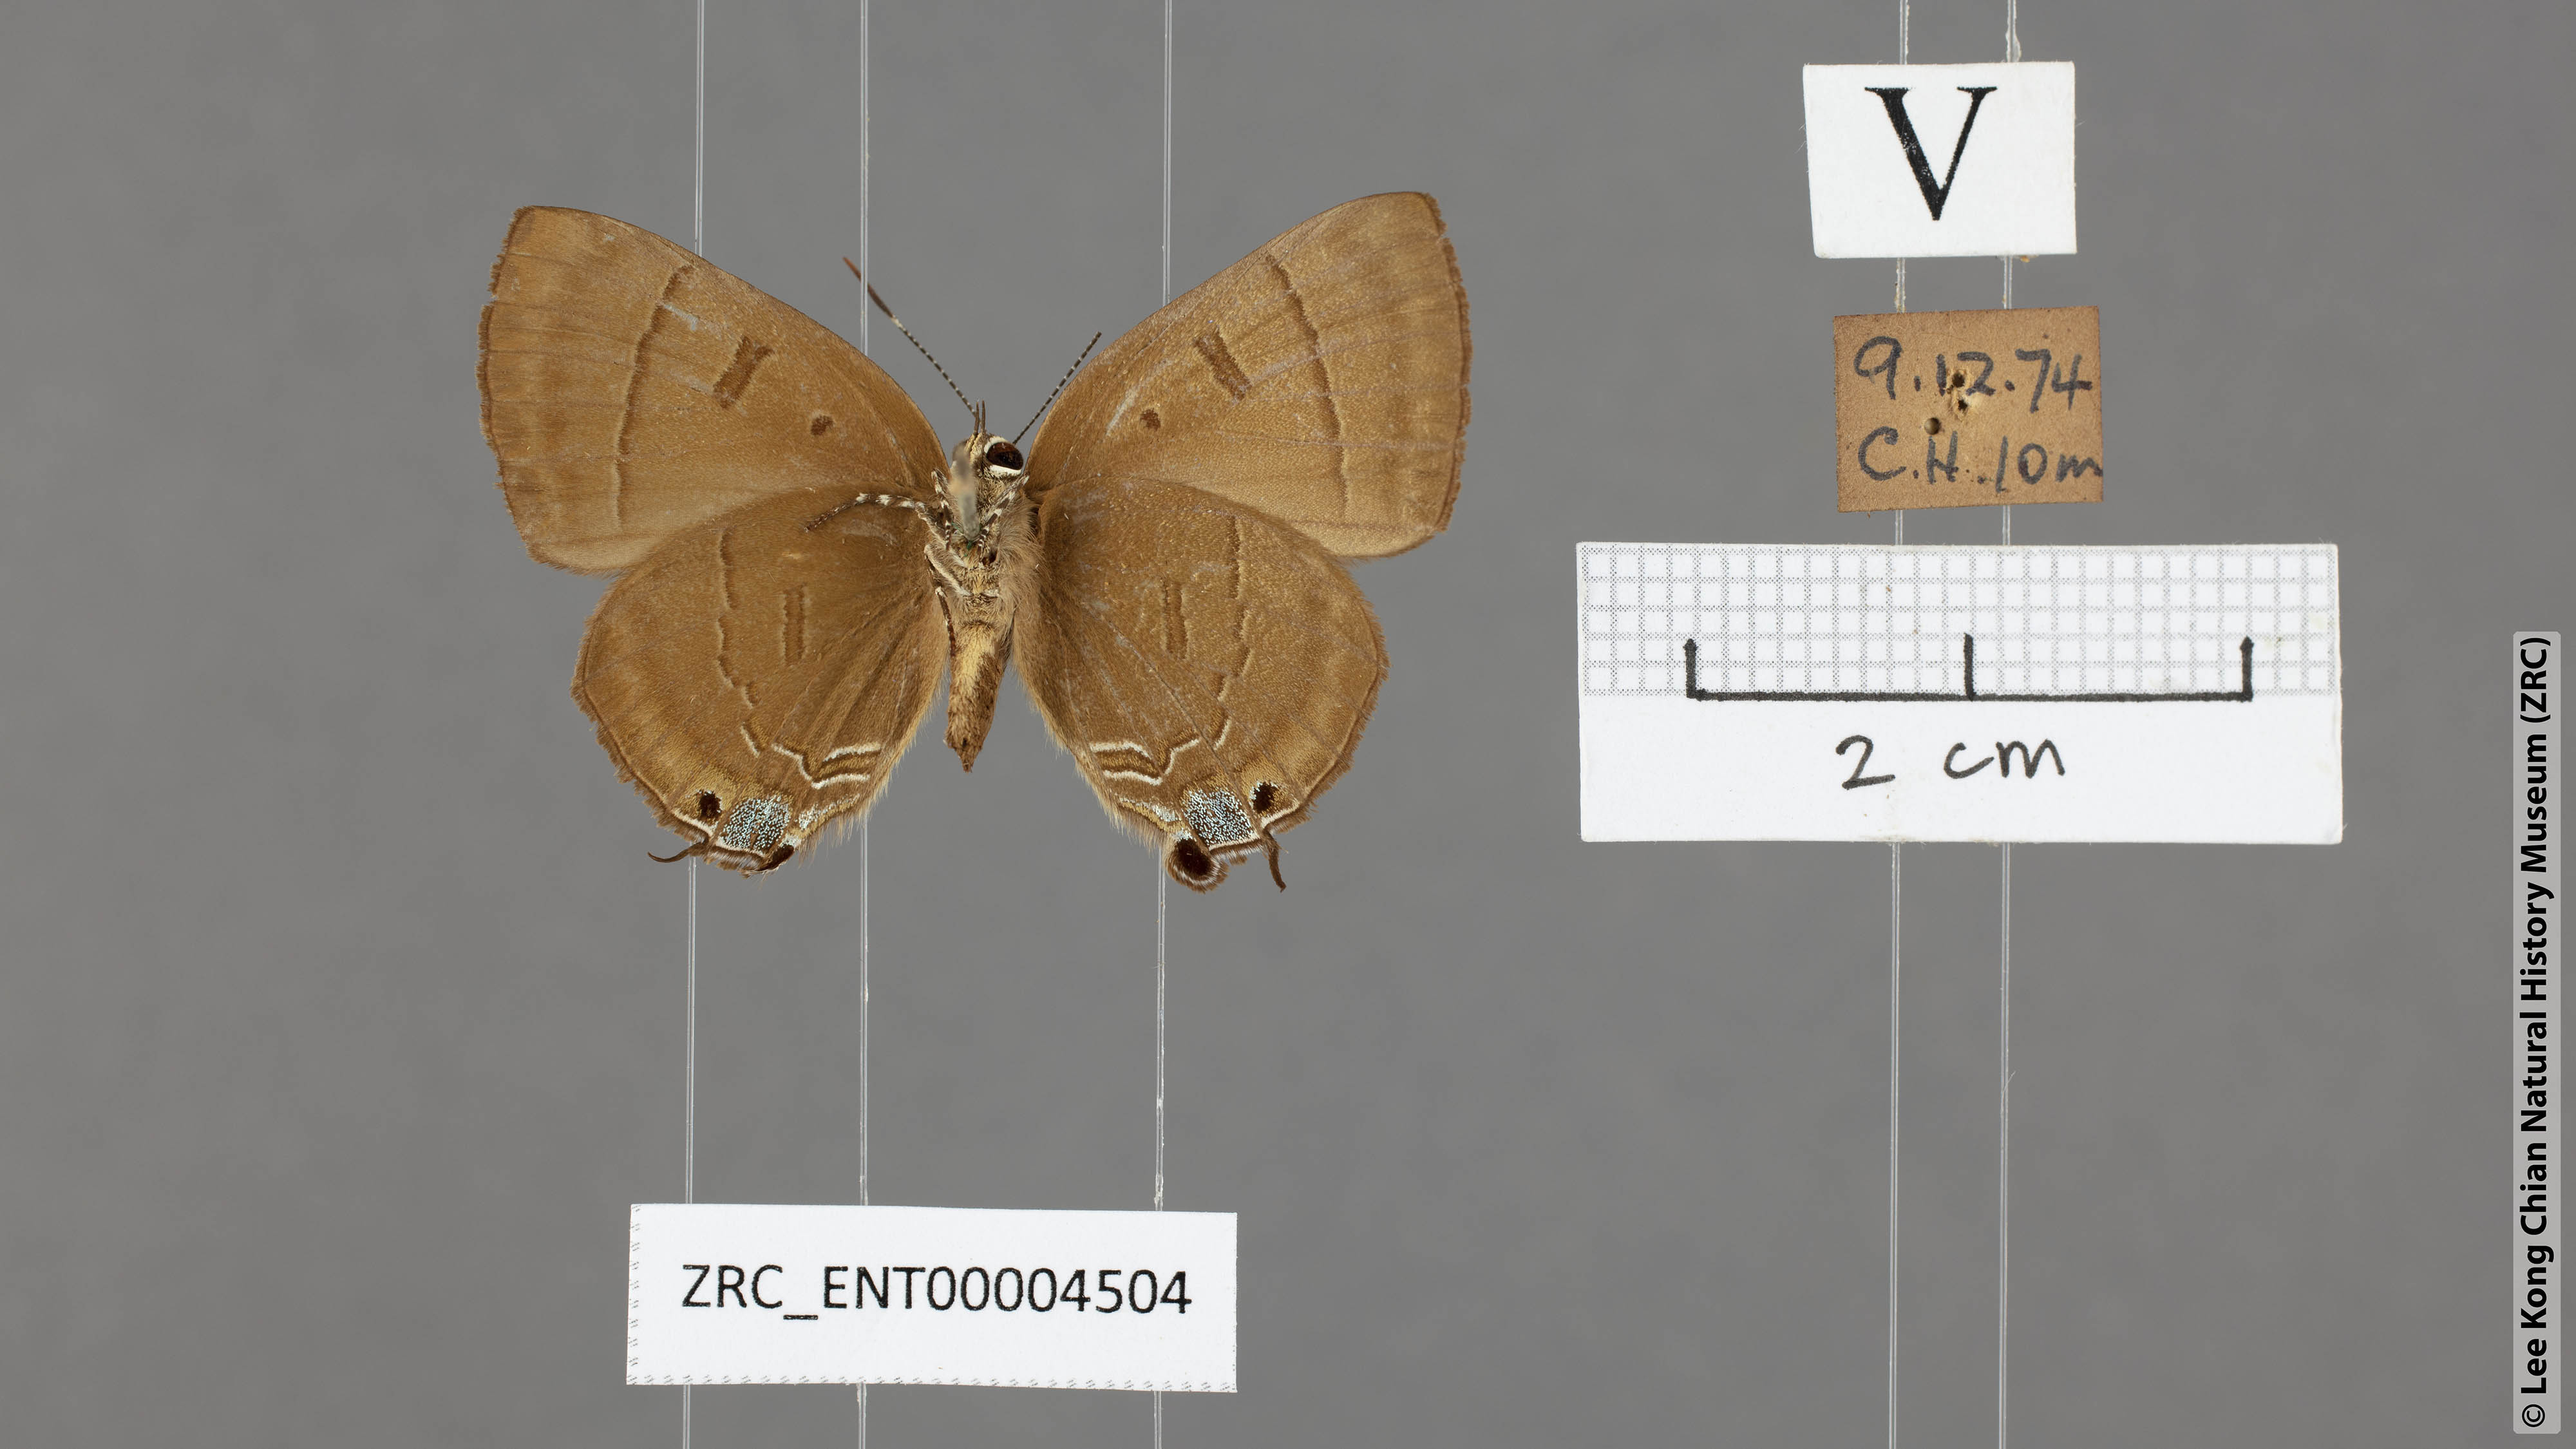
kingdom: Animalia
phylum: Arthropoda
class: Insecta
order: Lepidoptera
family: Lycaenidae
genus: Rapala
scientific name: Rapala pheretima
